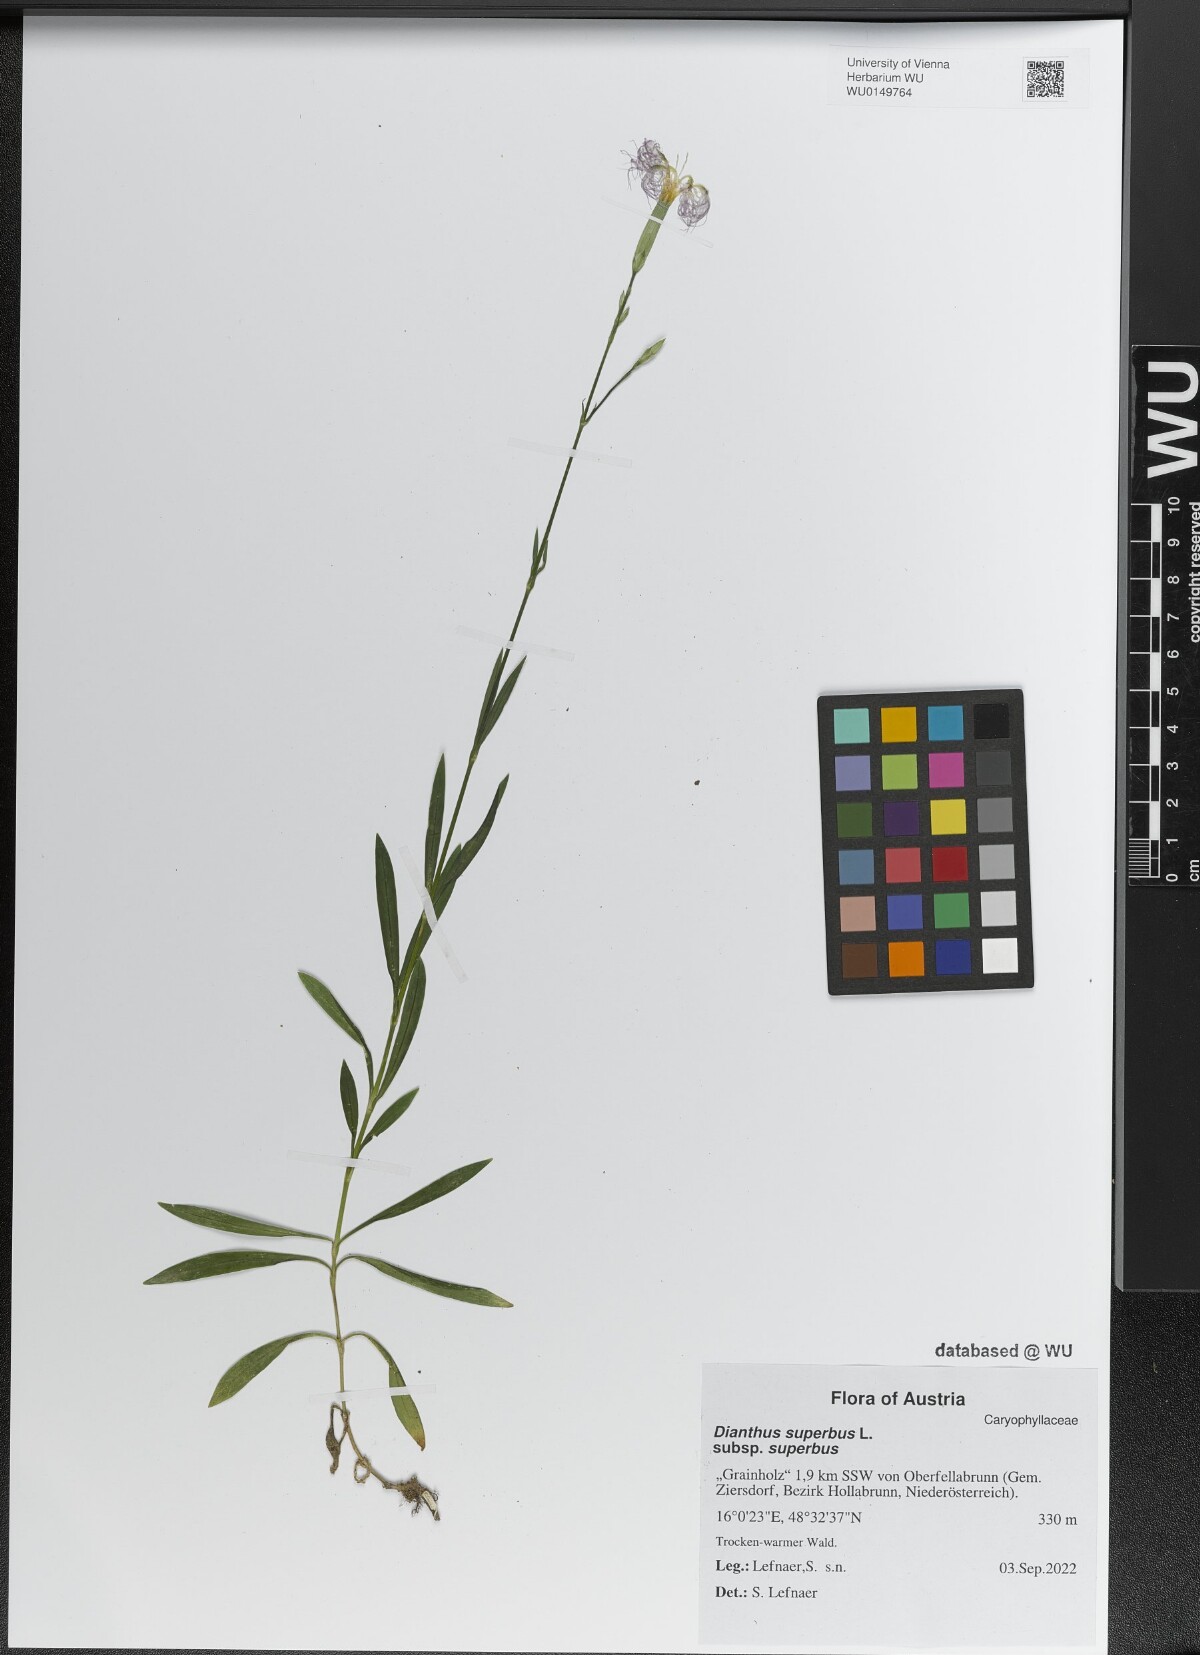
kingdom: Plantae
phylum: Tracheophyta
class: Magnoliopsida
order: Caryophyllales
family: Caryophyllaceae
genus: Dianthus
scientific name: Dianthus superbus
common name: Fringed pink
